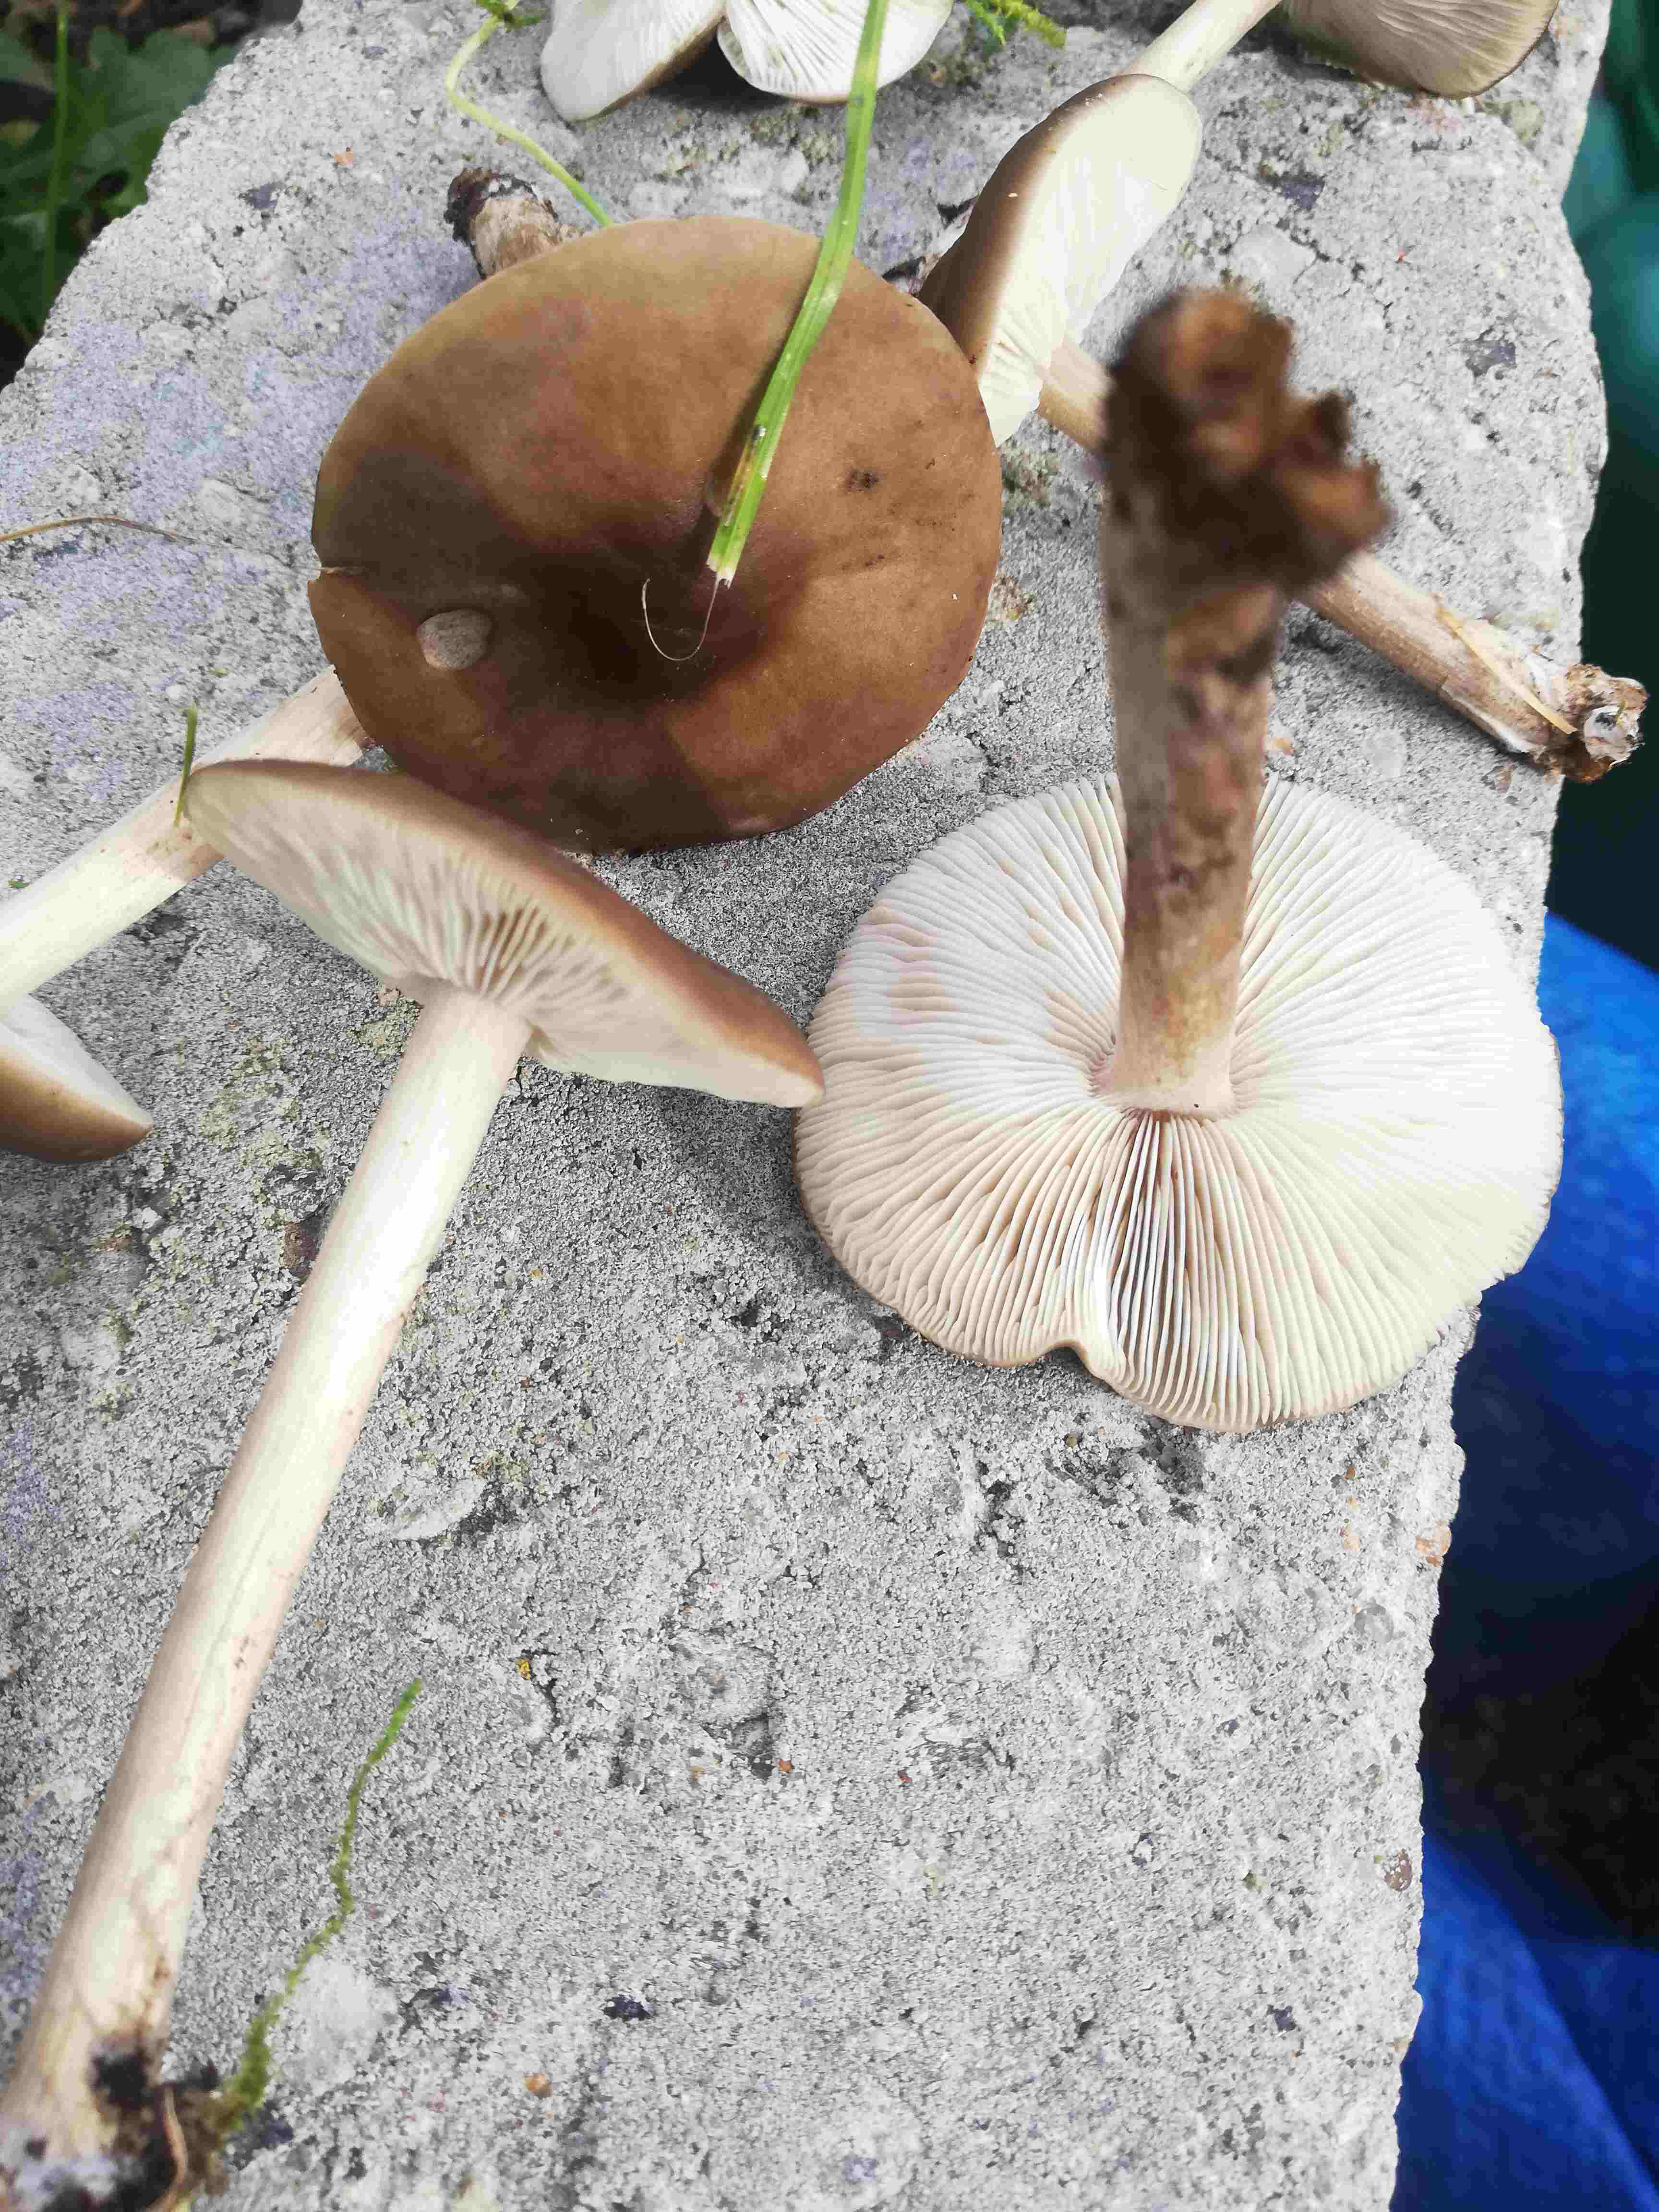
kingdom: Fungi
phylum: Basidiomycota
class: Agaricomycetes
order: Agaricales
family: Tricholomataceae
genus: Melanoleuca
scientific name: Melanoleuca
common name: munkehat
